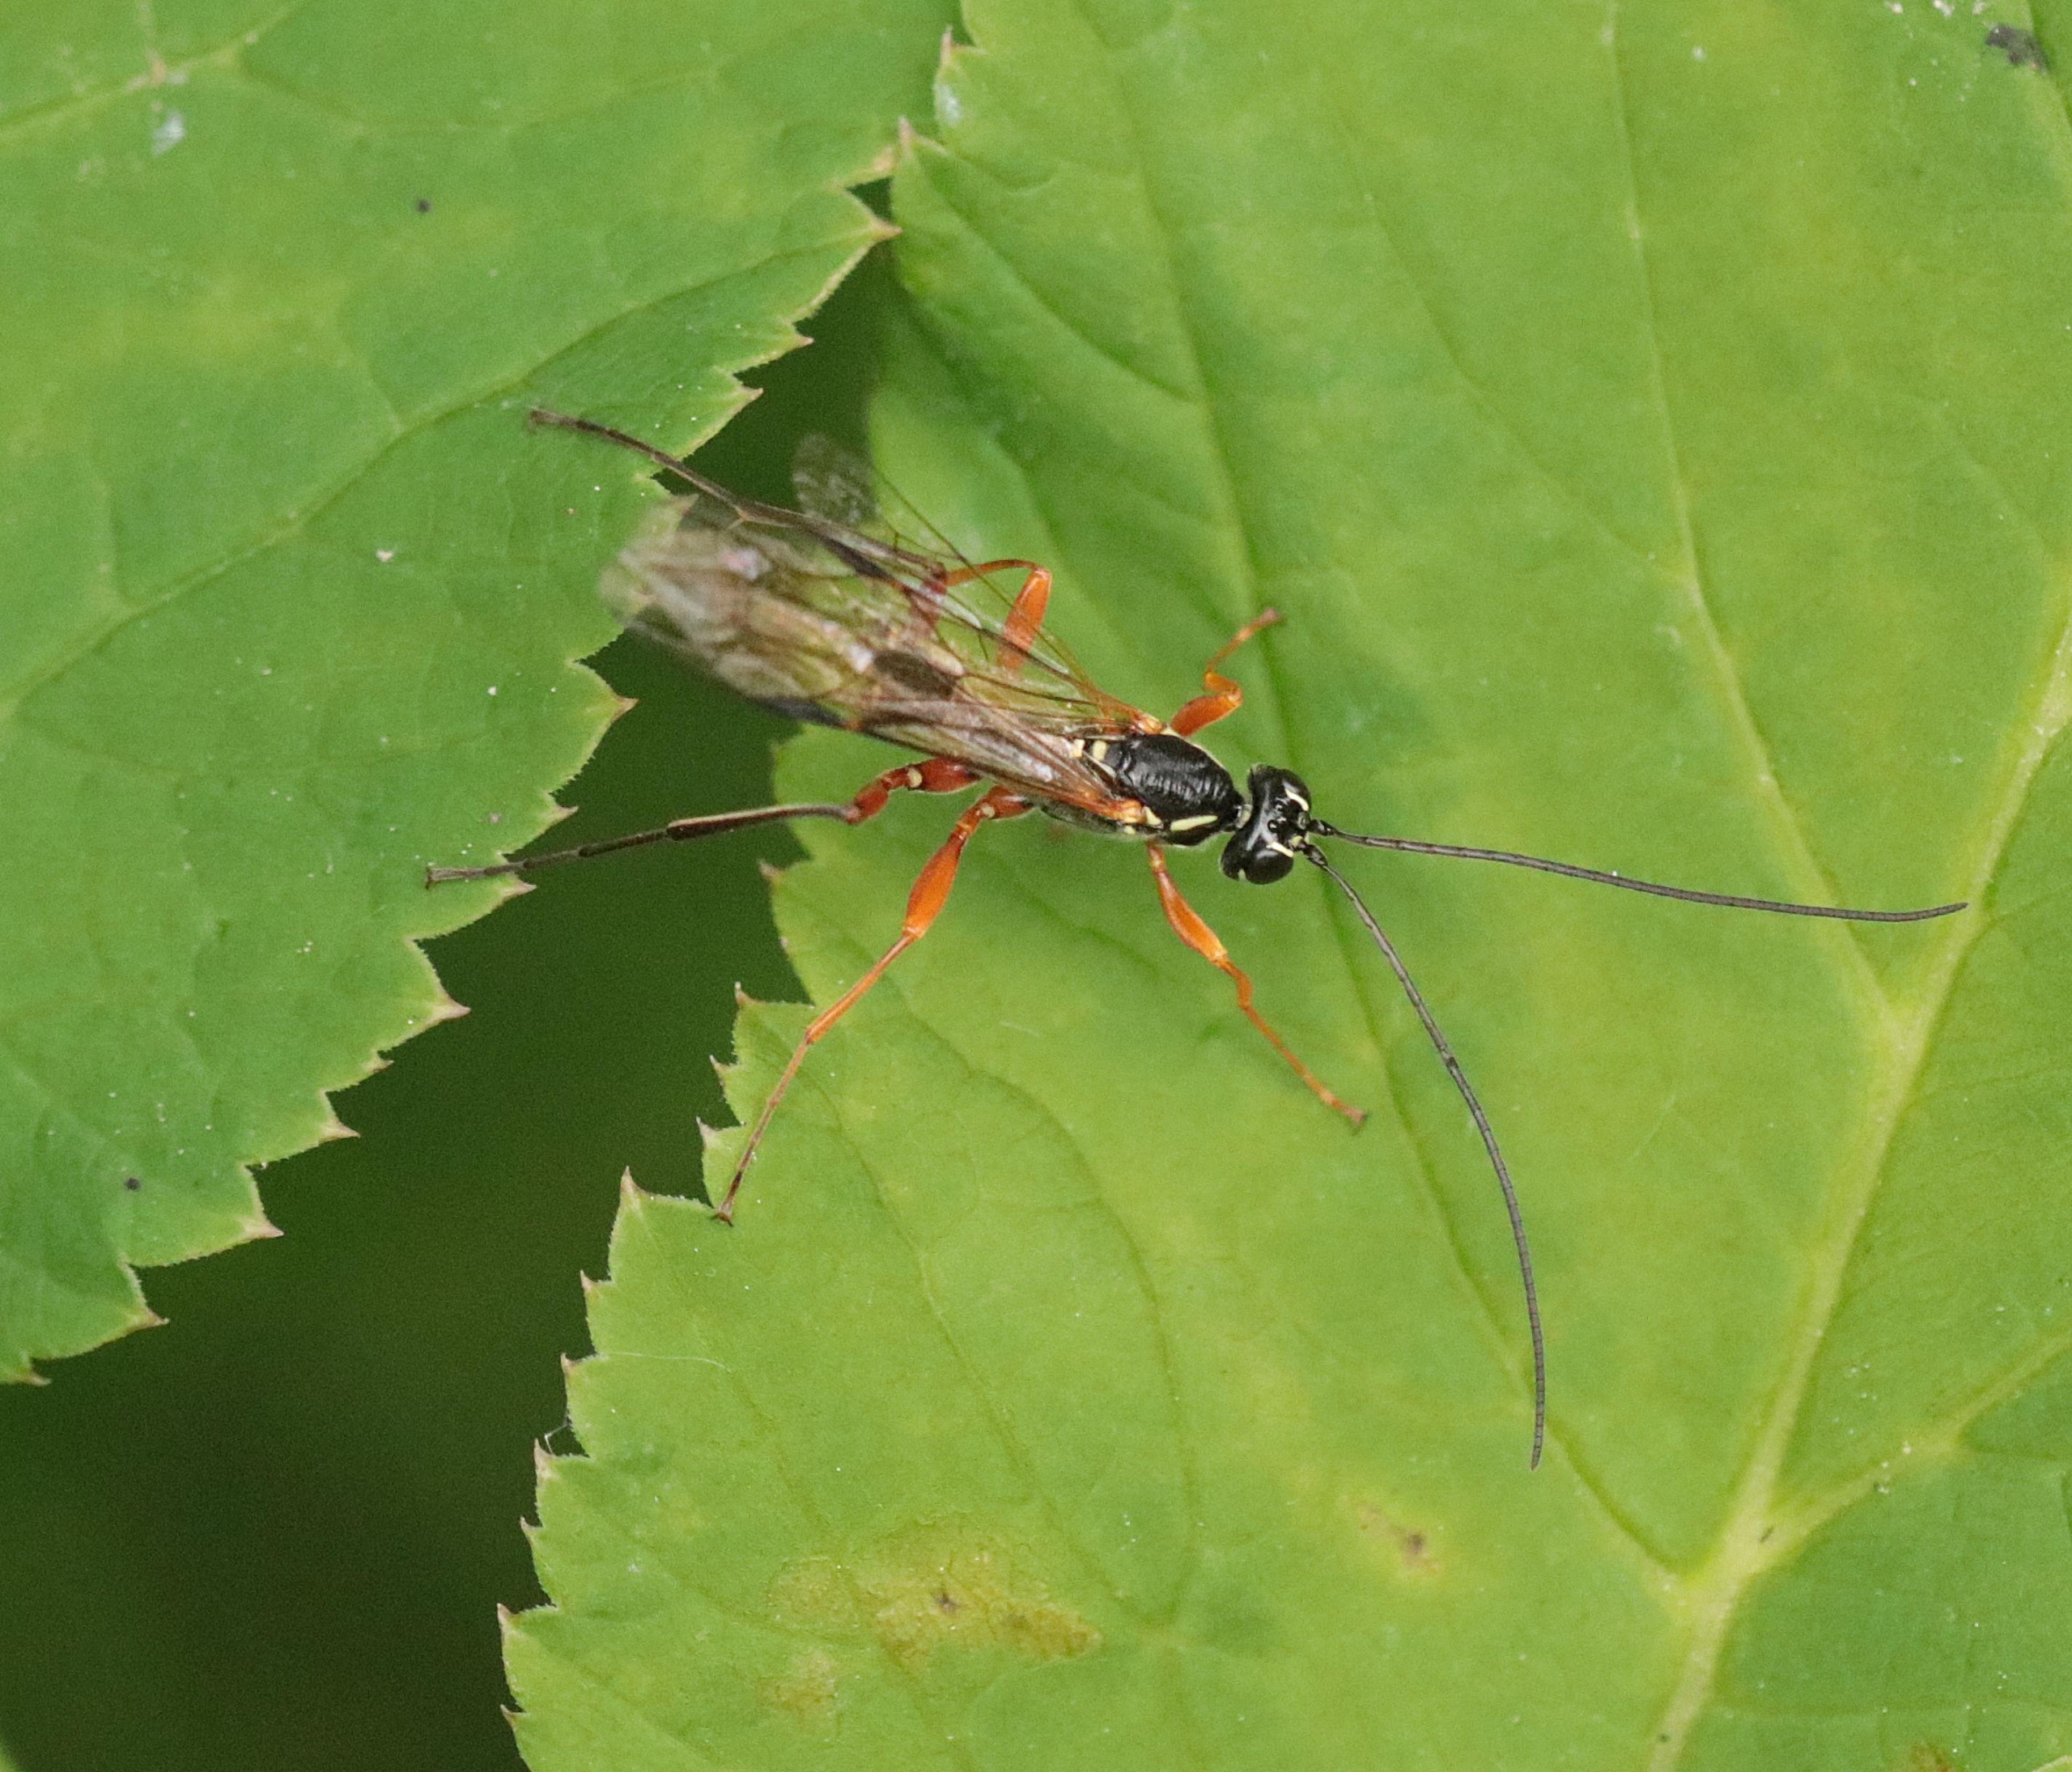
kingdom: Animalia
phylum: Arthropoda
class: Insecta
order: Hymenoptera
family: Ichneumonidae
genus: Rhyssa
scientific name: Rhyssa persuasoria
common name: Sabelhveps
